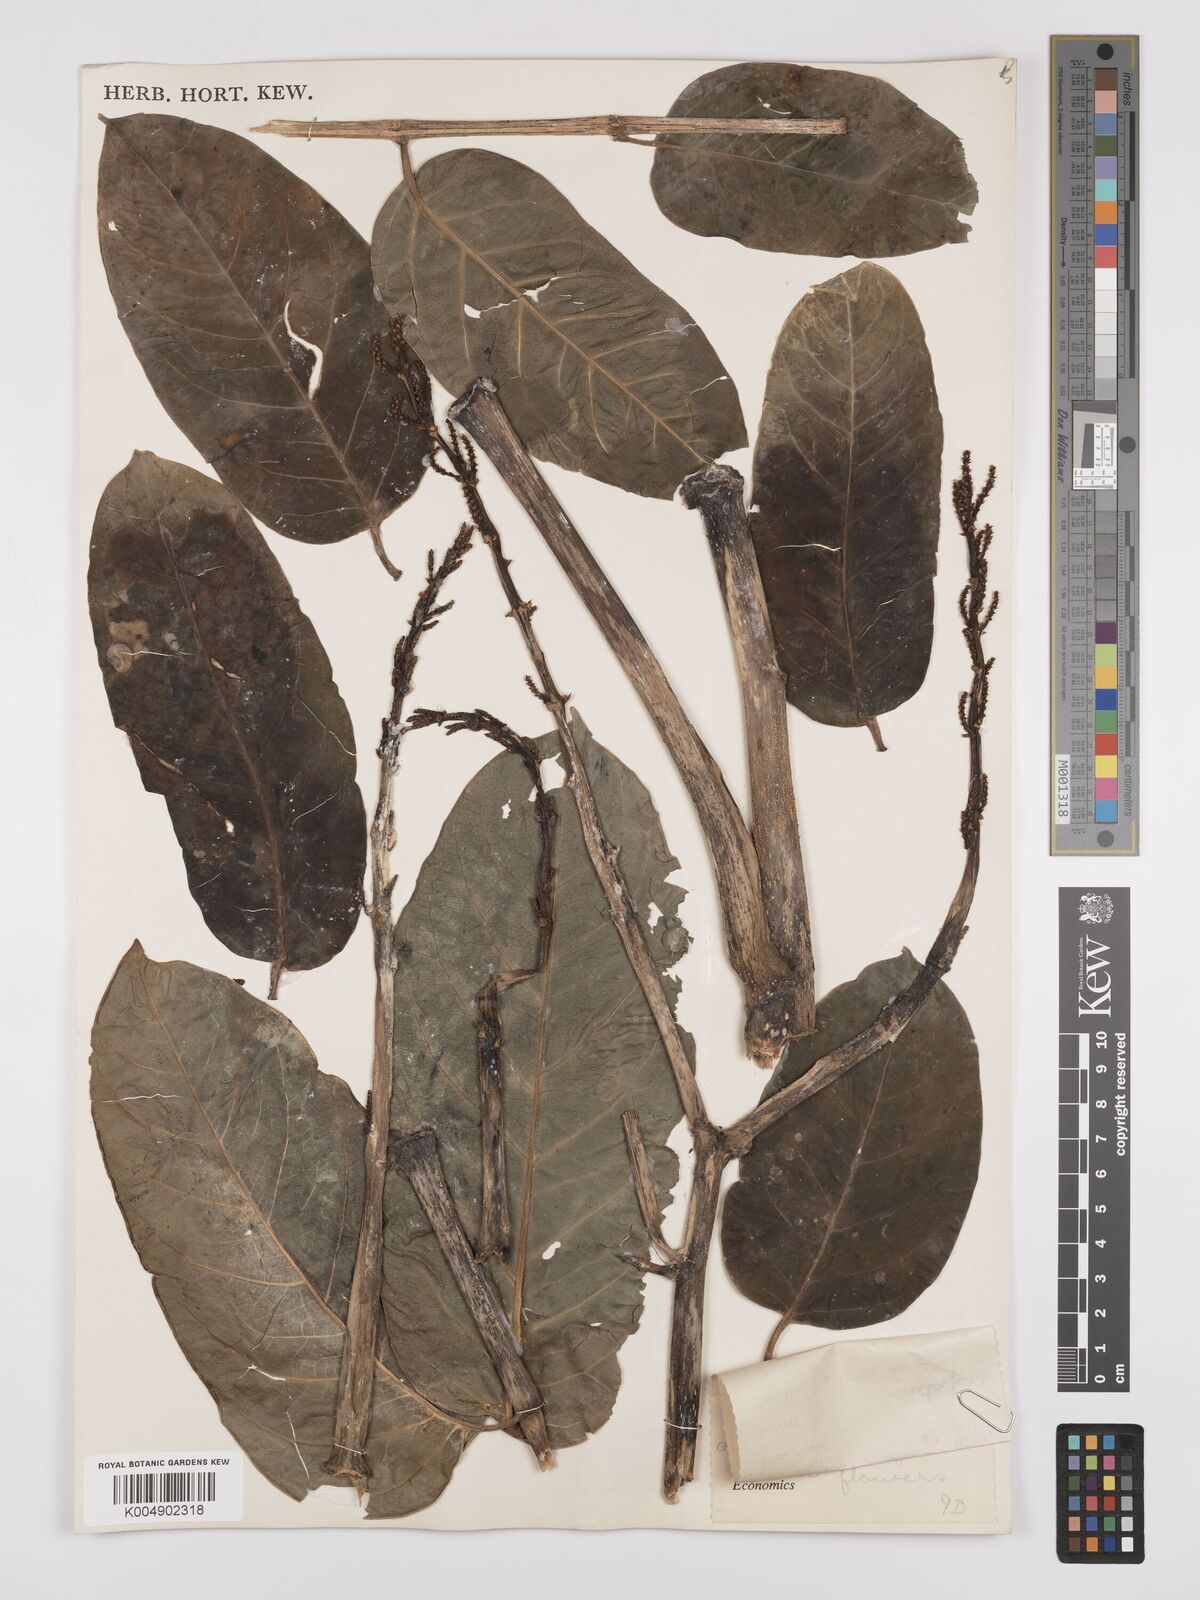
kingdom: Plantae
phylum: Tracheophyta
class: Magnoliopsida
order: Apiales
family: Araliaceae
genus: Polyscias
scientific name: Polyscias multijuga
